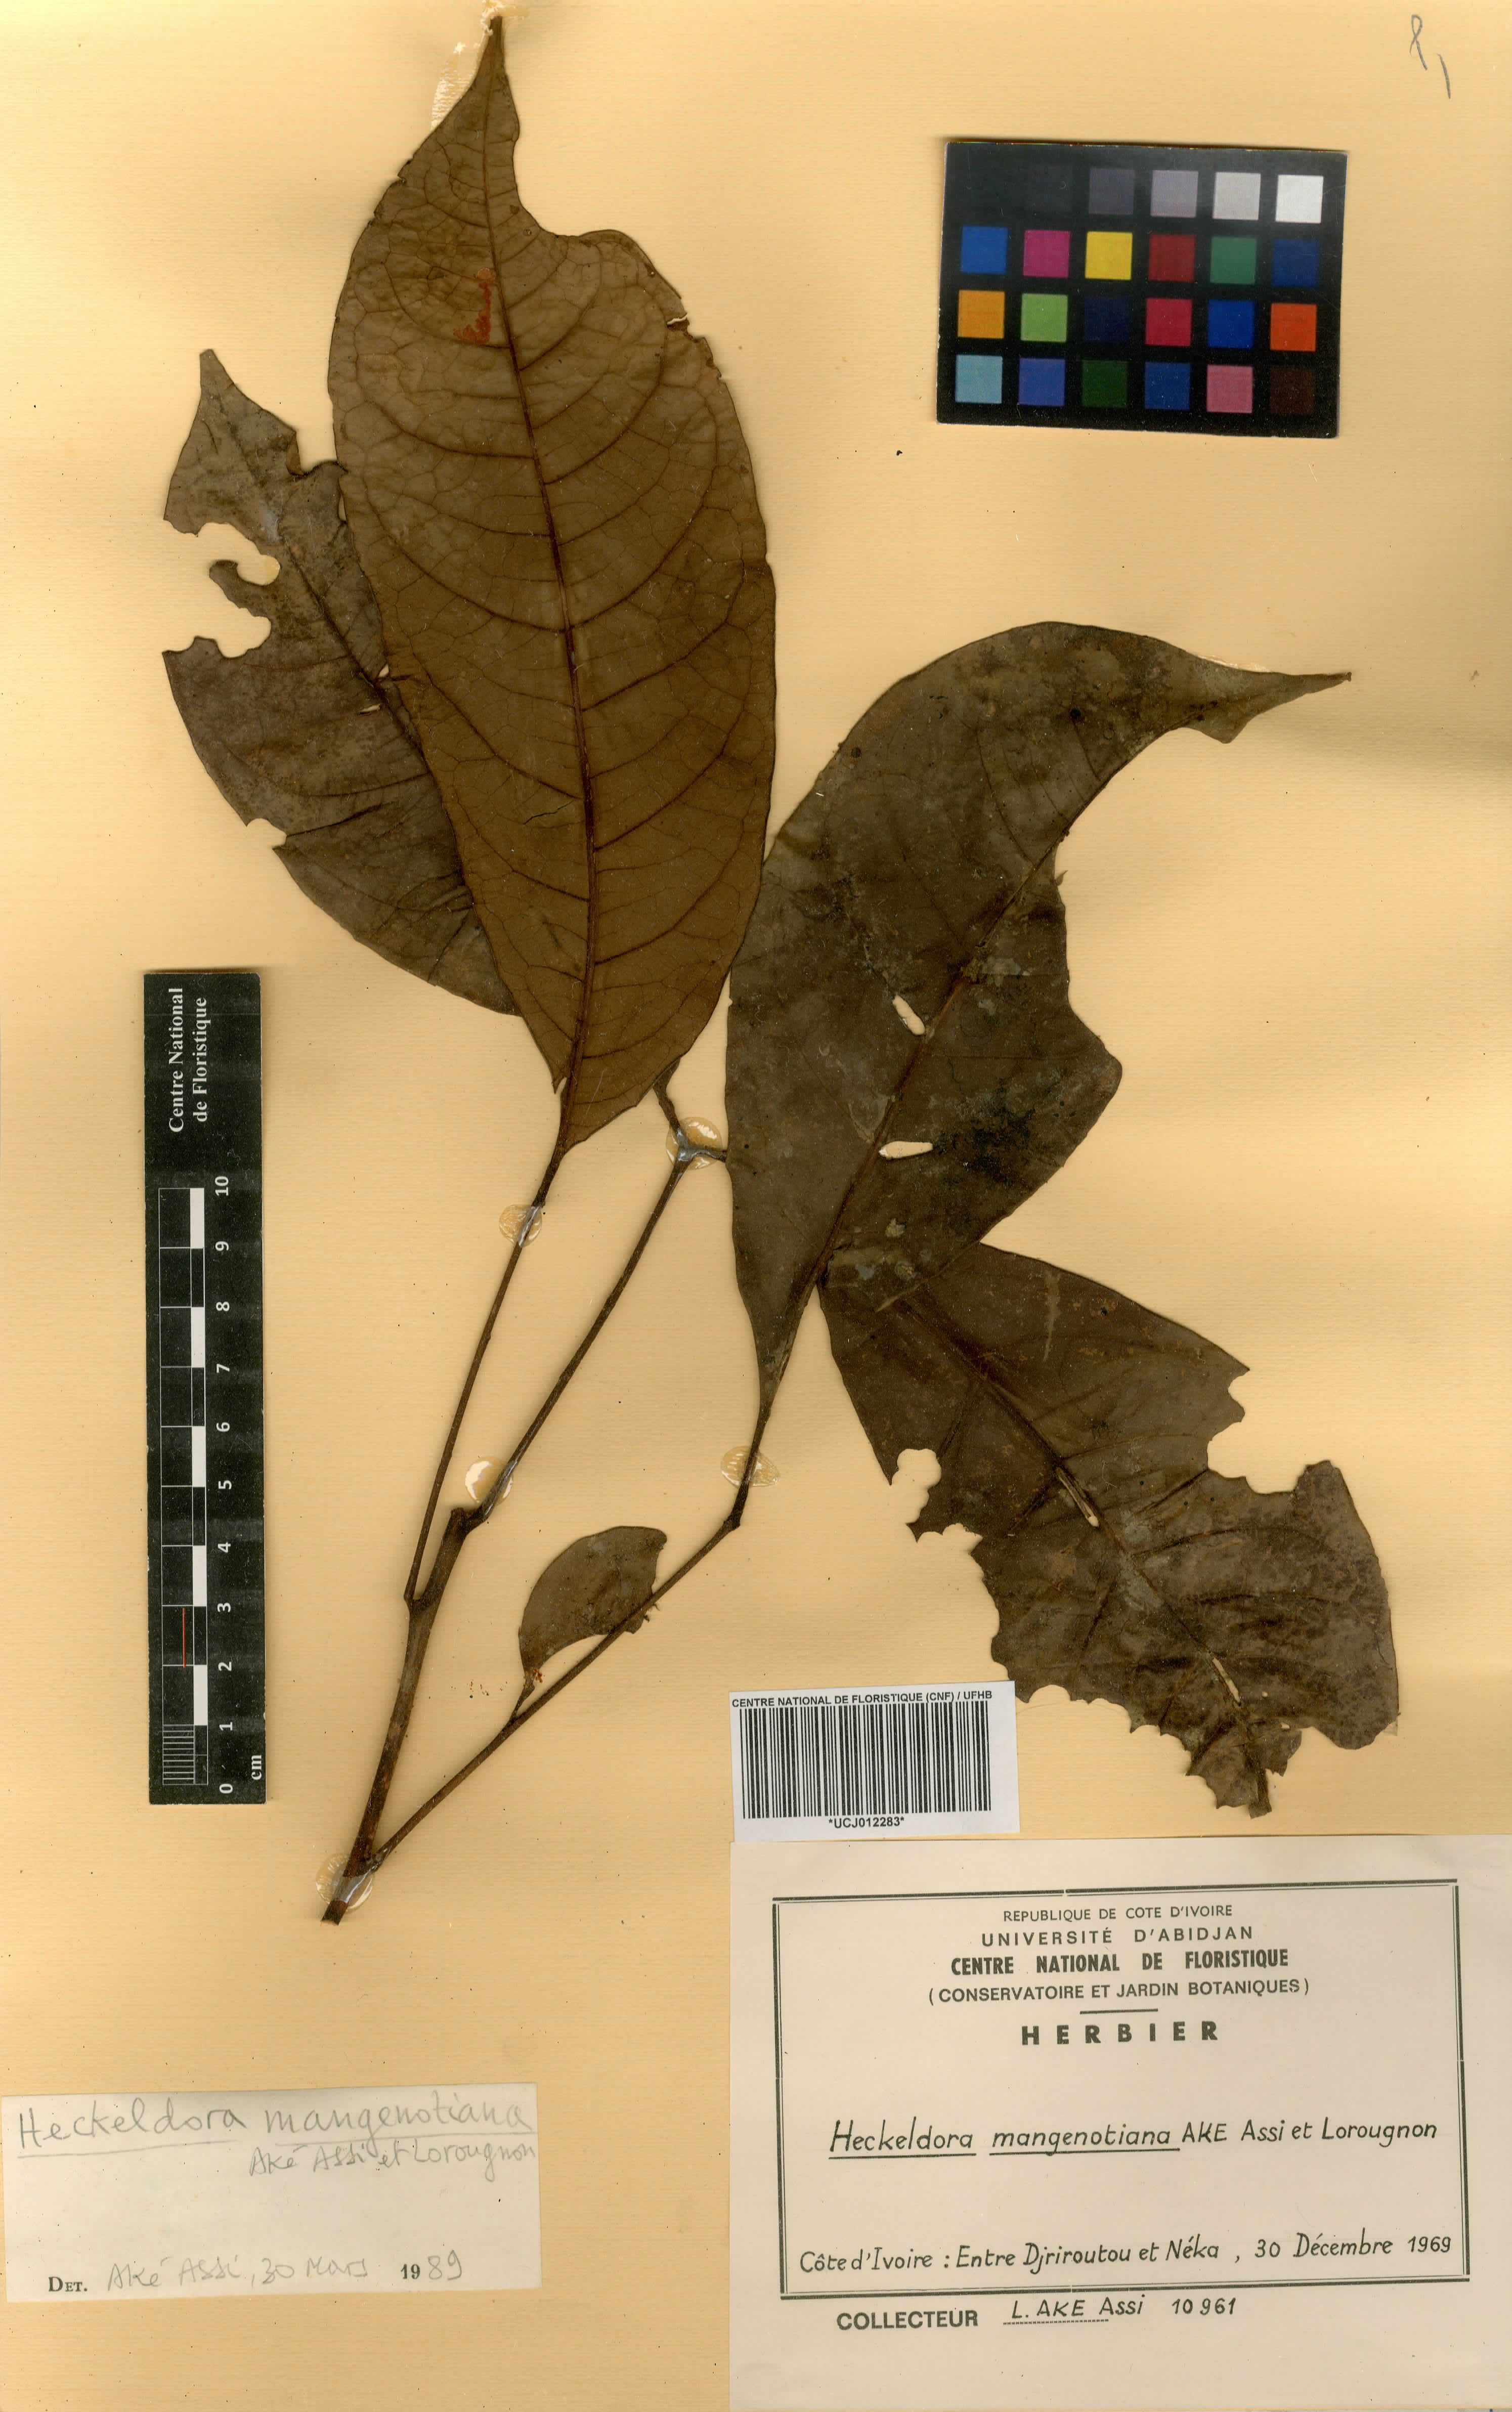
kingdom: Plantae
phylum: Tracheophyta
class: Magnoliopsida
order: Sapindales
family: Meliaceae
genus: Leplaea
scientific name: Leplaea mangenotiana
